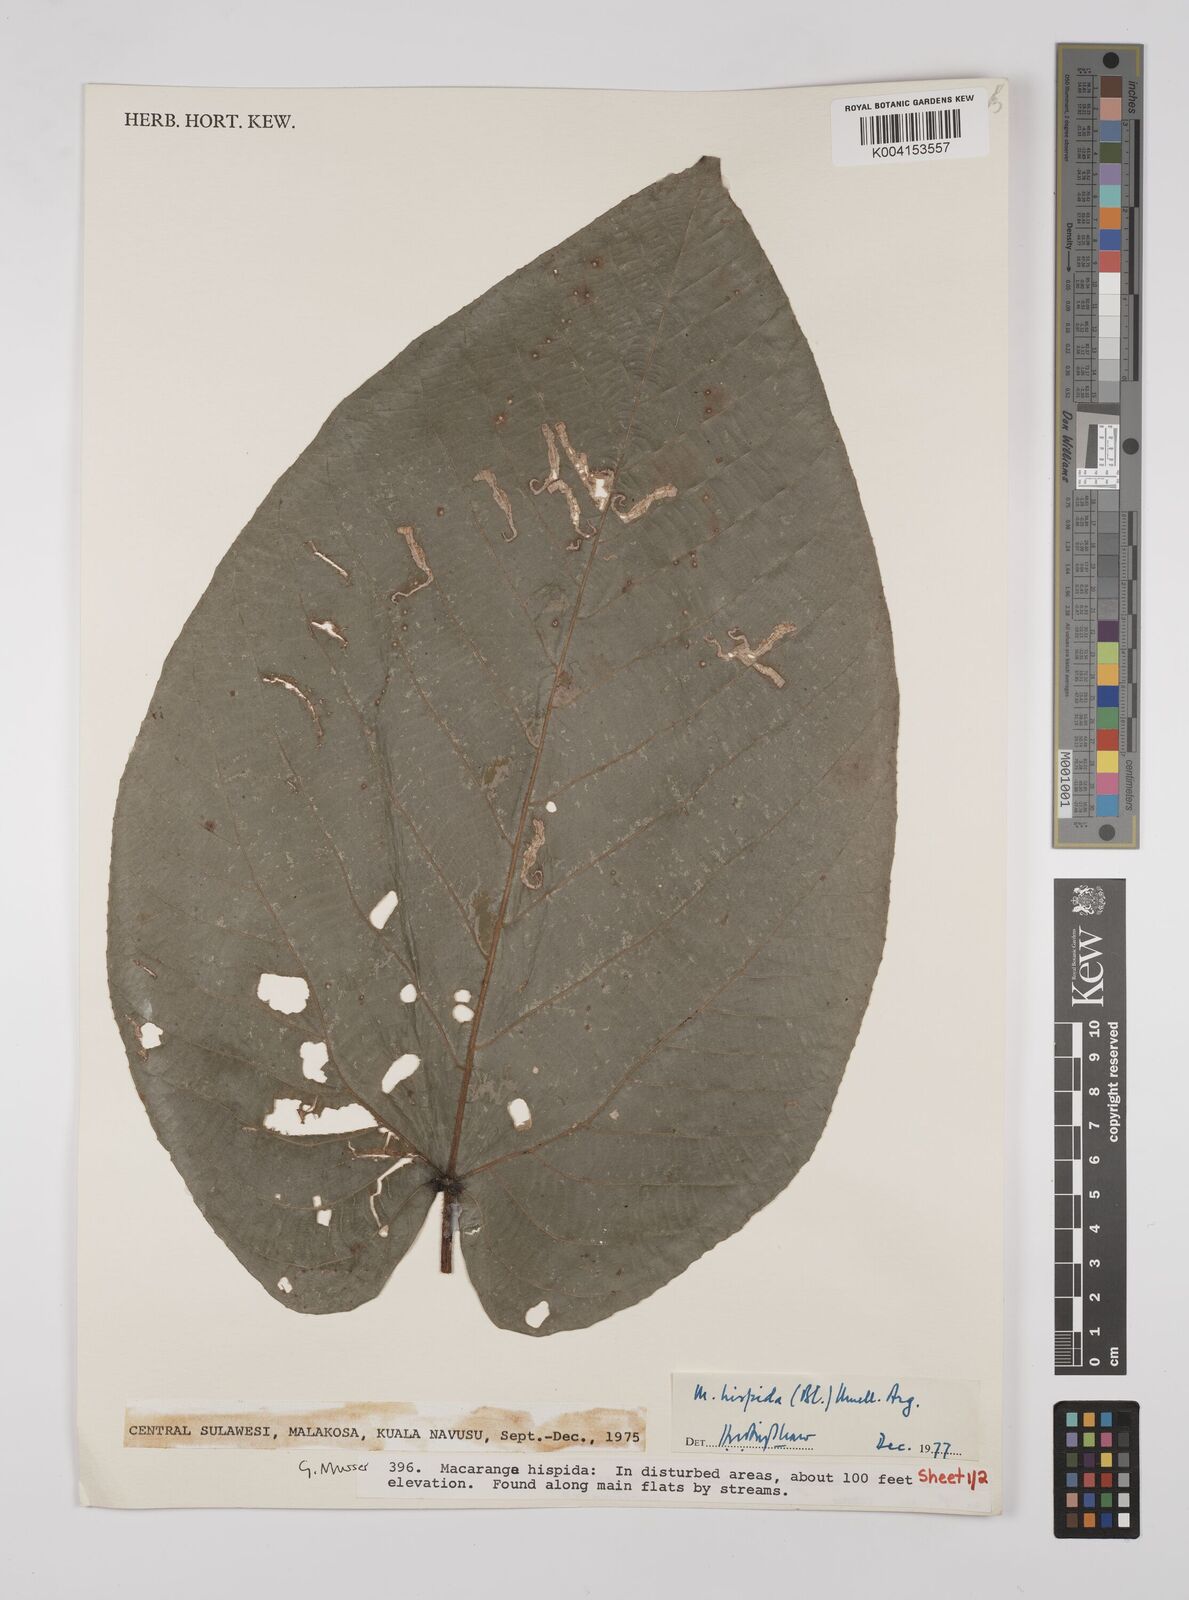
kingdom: Plantae
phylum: Tracheophyta
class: Magnoliopsida
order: Malpighiales
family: Euphorbiaceae
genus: Macaranga
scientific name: Macaranga hispida
